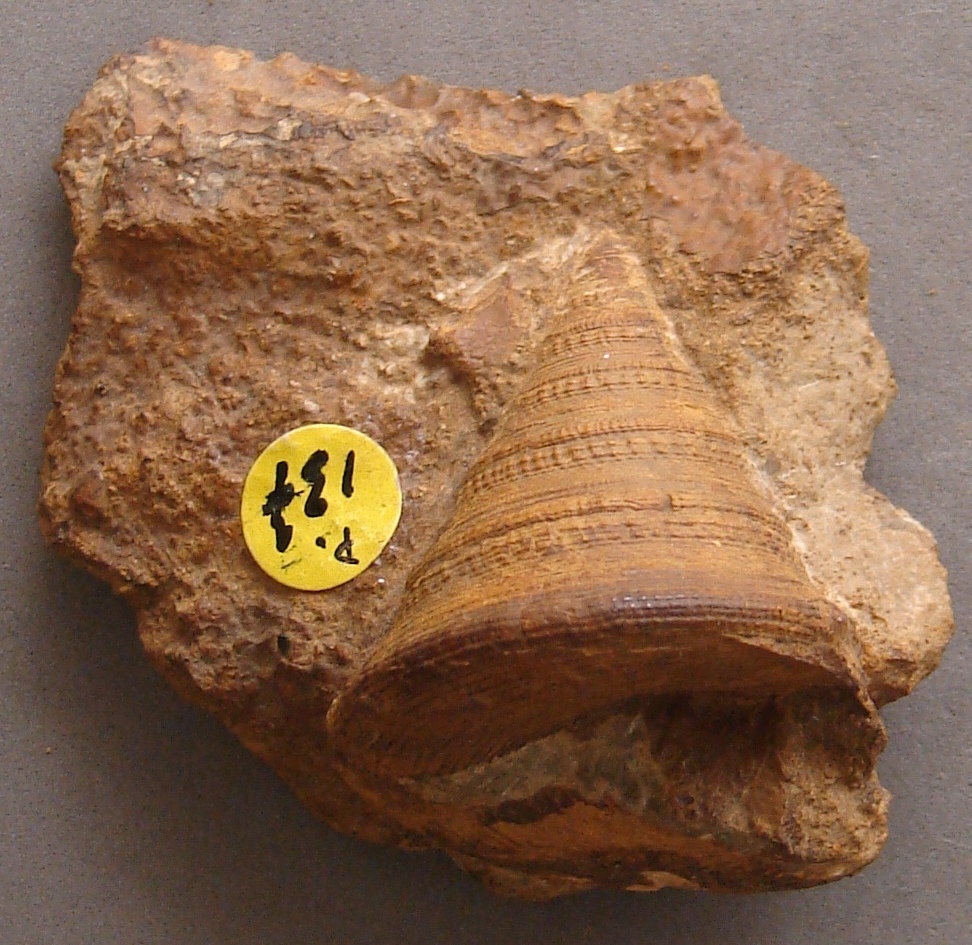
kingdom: Animalia
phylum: Mollusca
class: Gastropoda
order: Pleurotomariida
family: Pleurotomariidae
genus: Pyrgotrochus
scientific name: Pyrgotrochus elongatus
